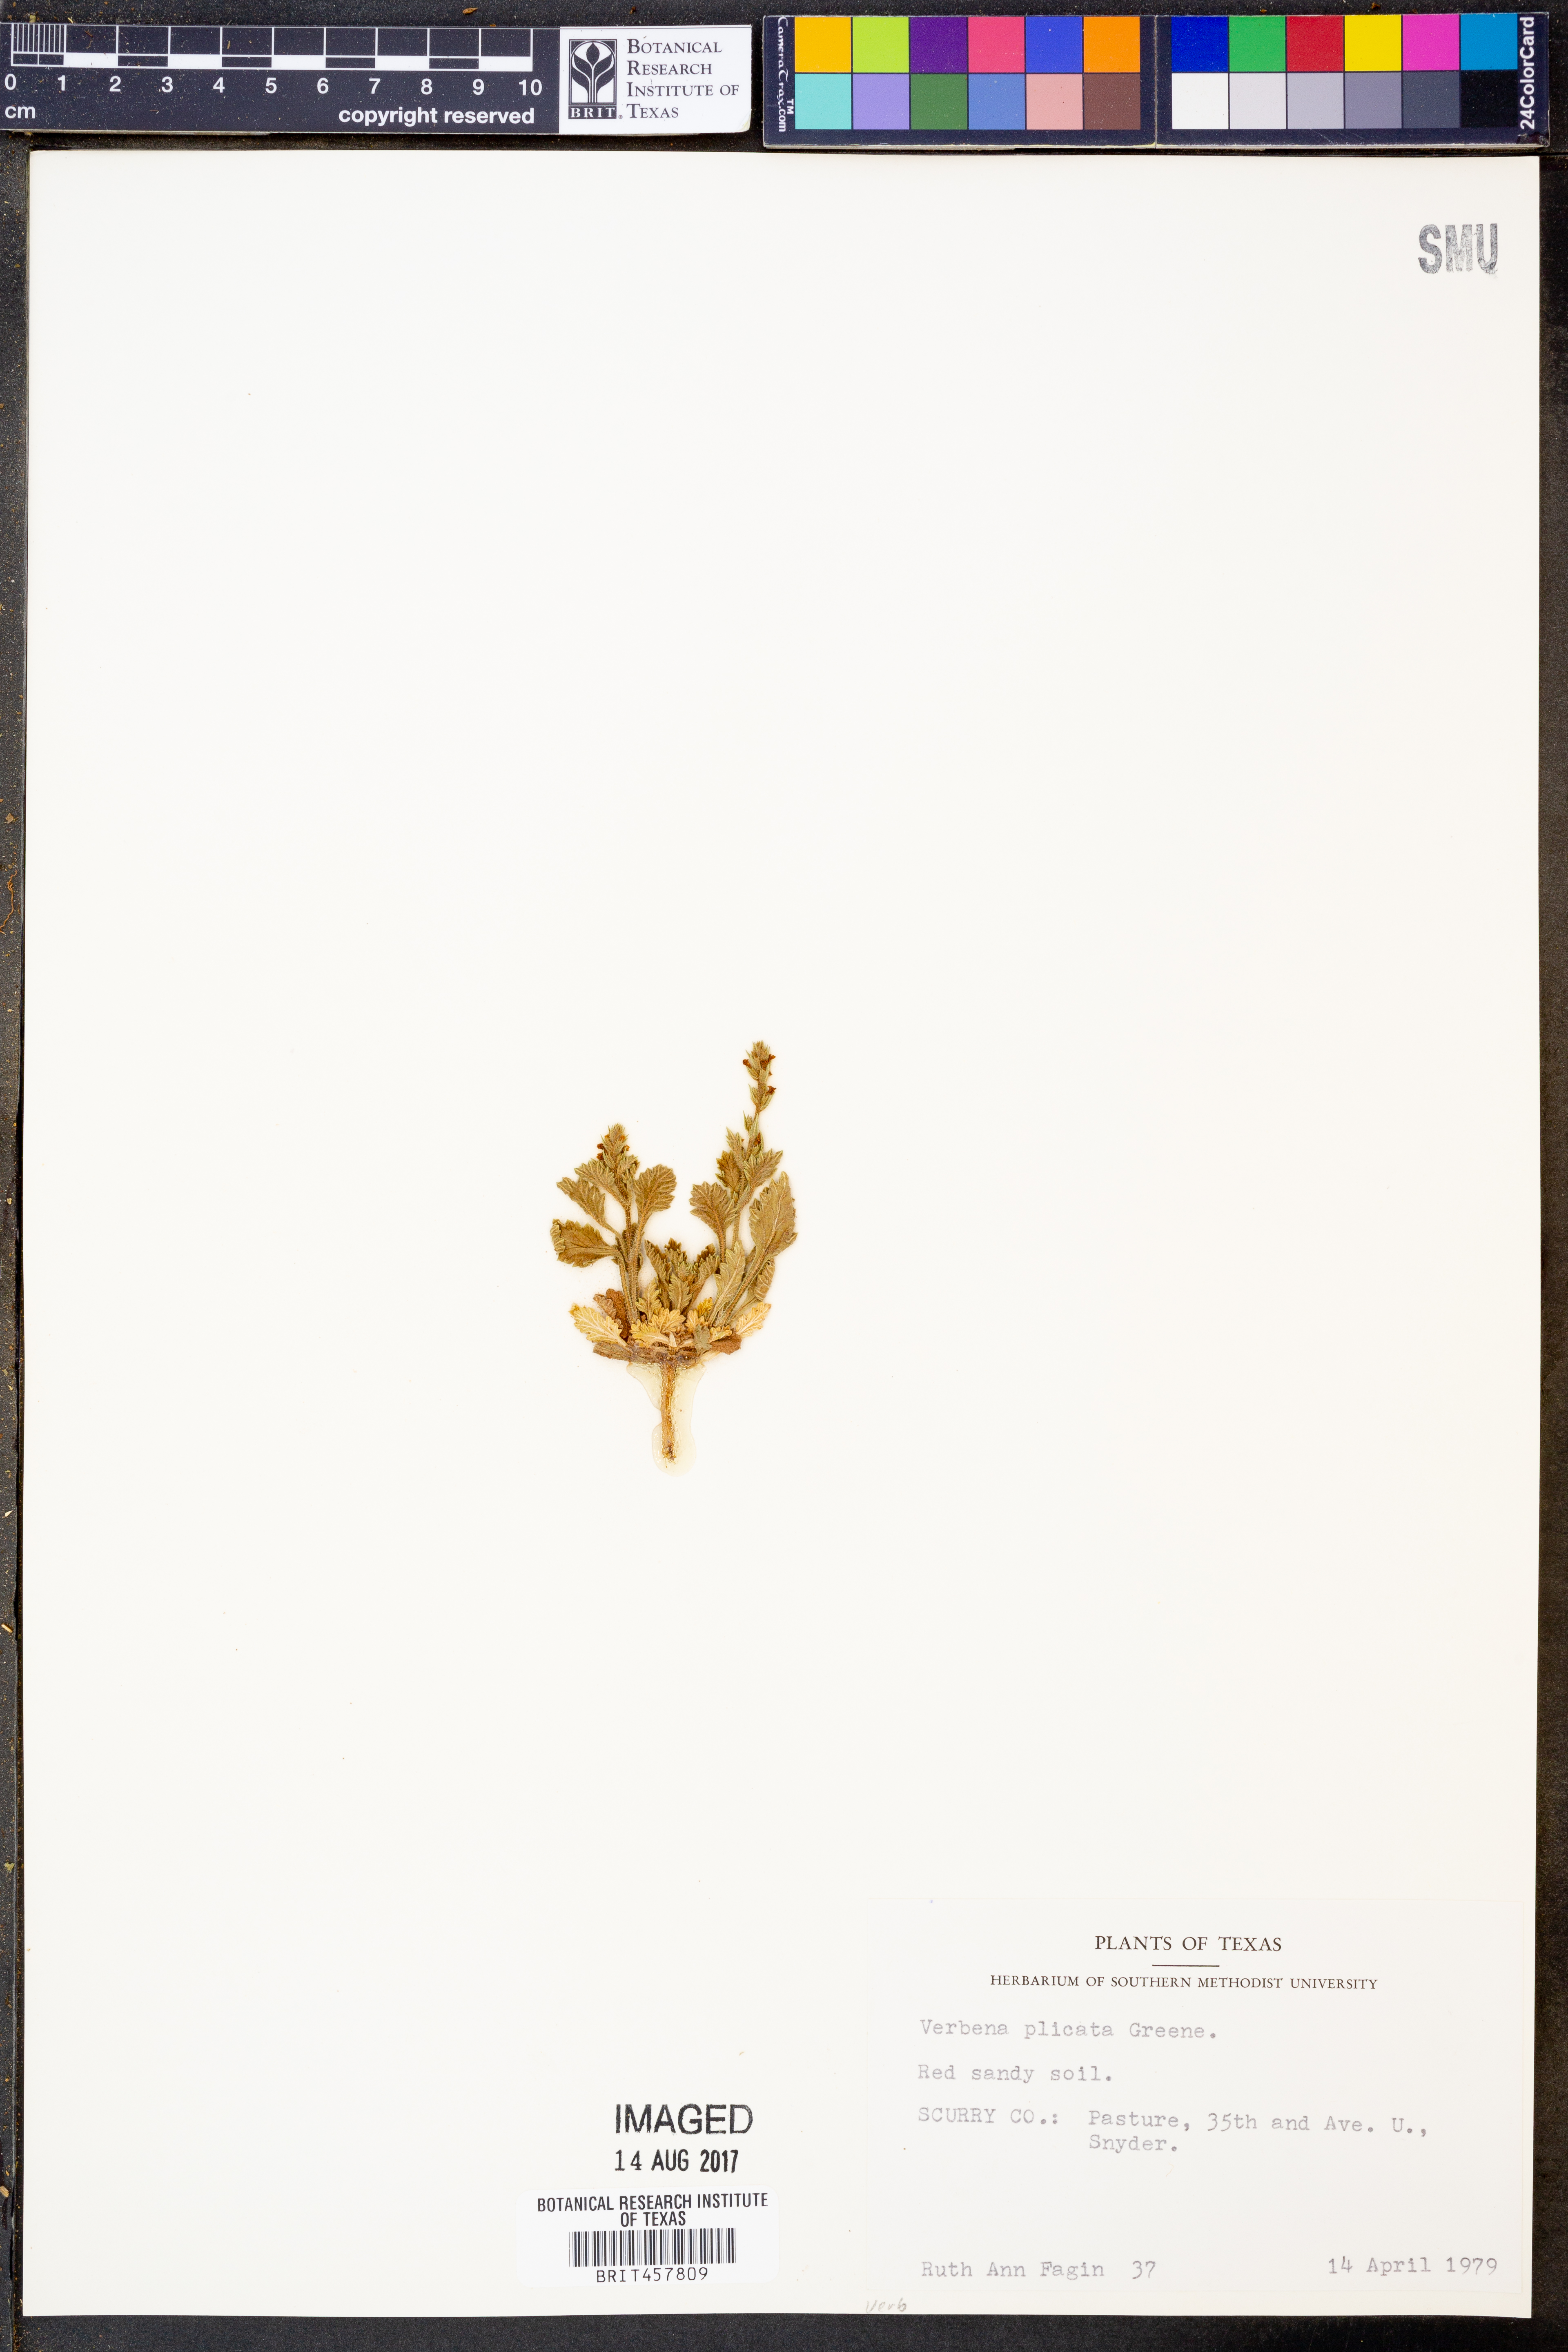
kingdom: Plantae
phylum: Tracheophyta
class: Magnoliopsida
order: Lamiales
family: Verbenaceae
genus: Verbena
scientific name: Verbena plicata
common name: Fan-leaf vervain
